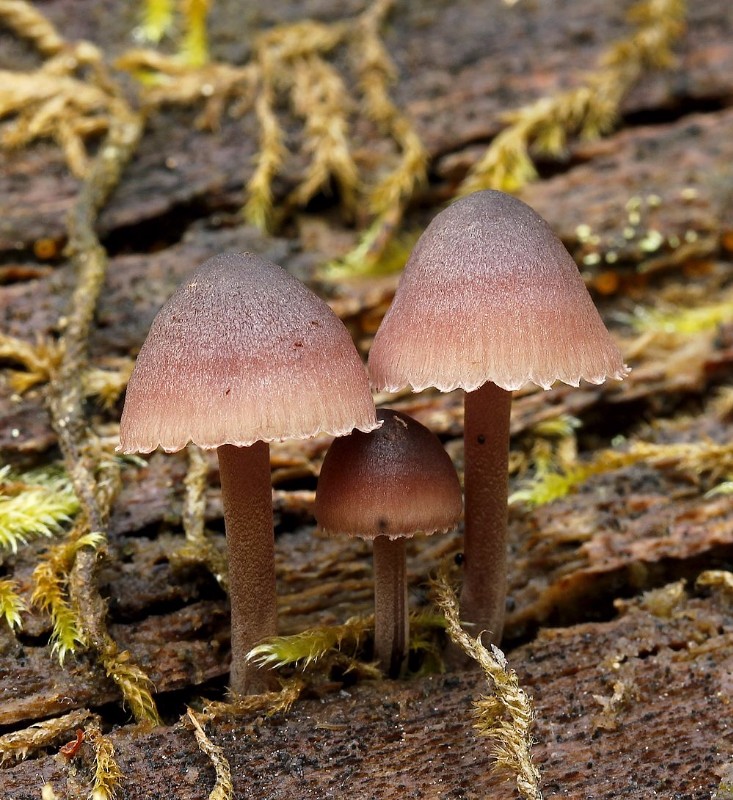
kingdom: Fungi
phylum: Basidiomycota
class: Agaricomycetes
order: Agaricales
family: Mycenaceae
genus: Mycena
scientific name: Mycena haematopus
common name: blødende huesvamp
